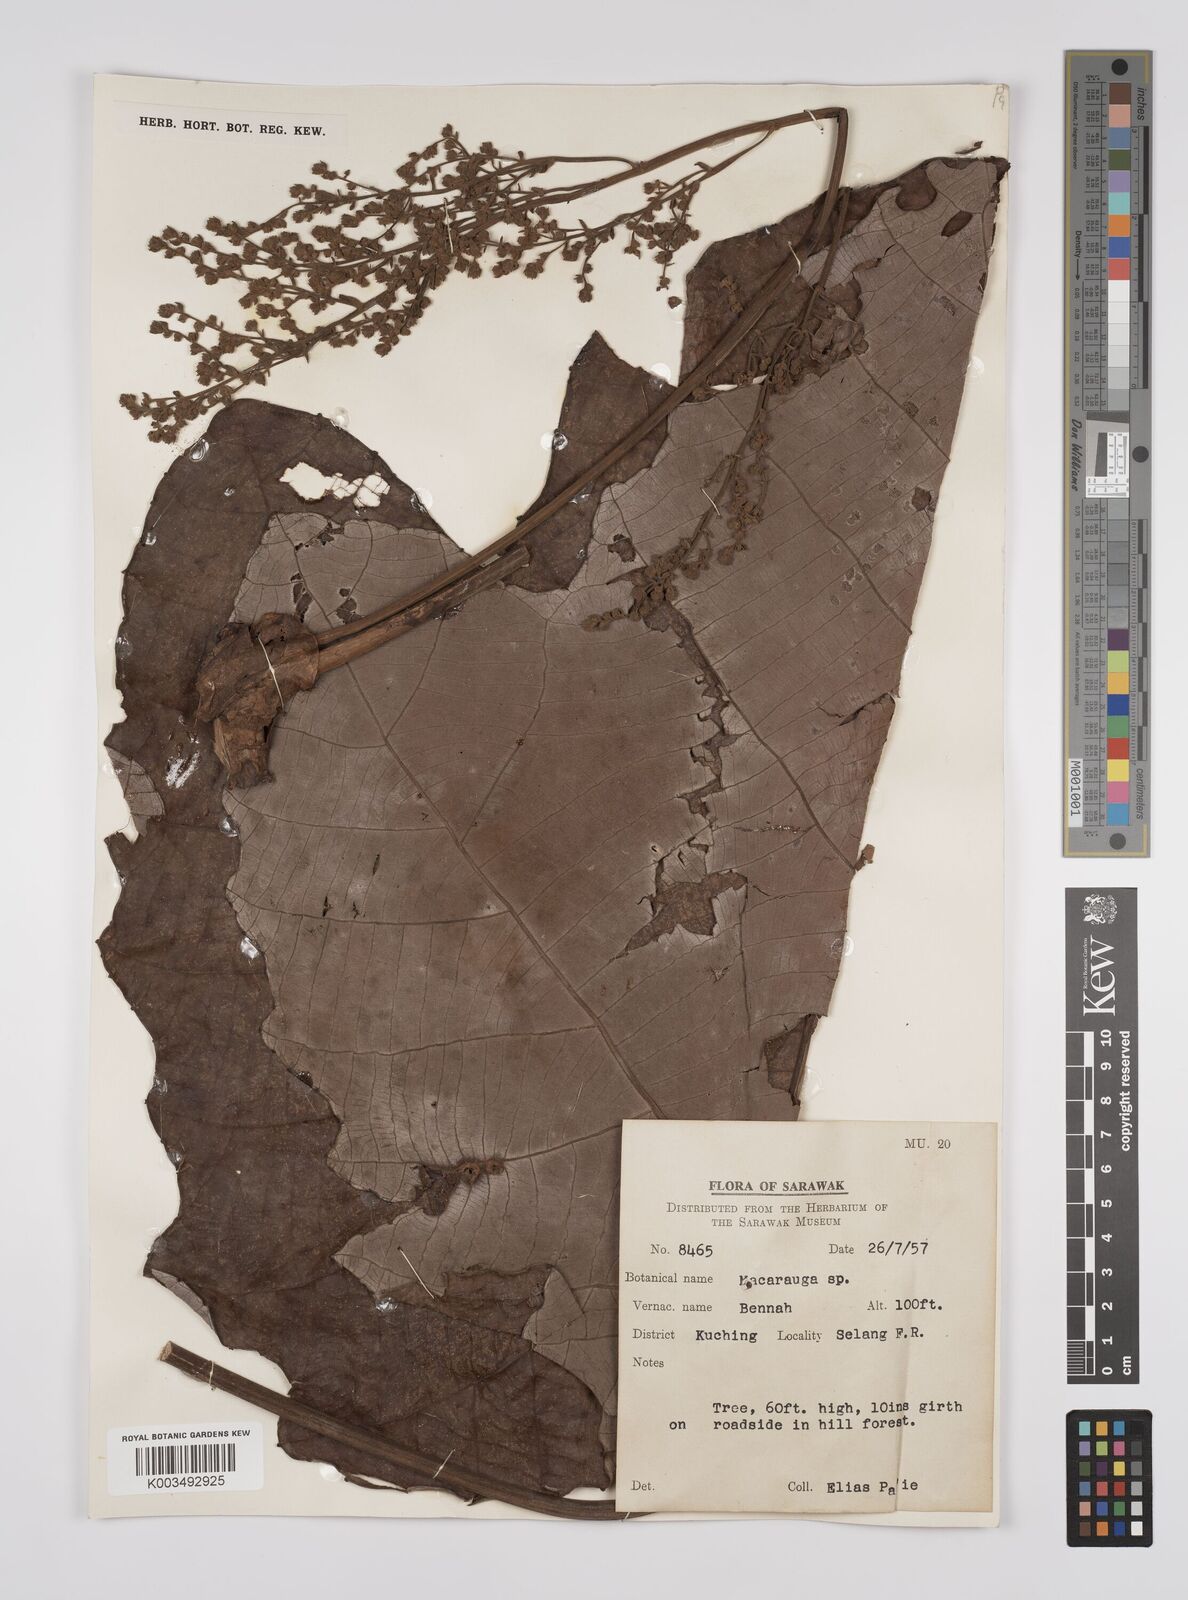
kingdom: Plantae
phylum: Tracheophyta
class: Magnoliopsida
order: Malpighiales
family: Euphorbiaceae
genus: Macaranga
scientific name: Macaranga gigantea
